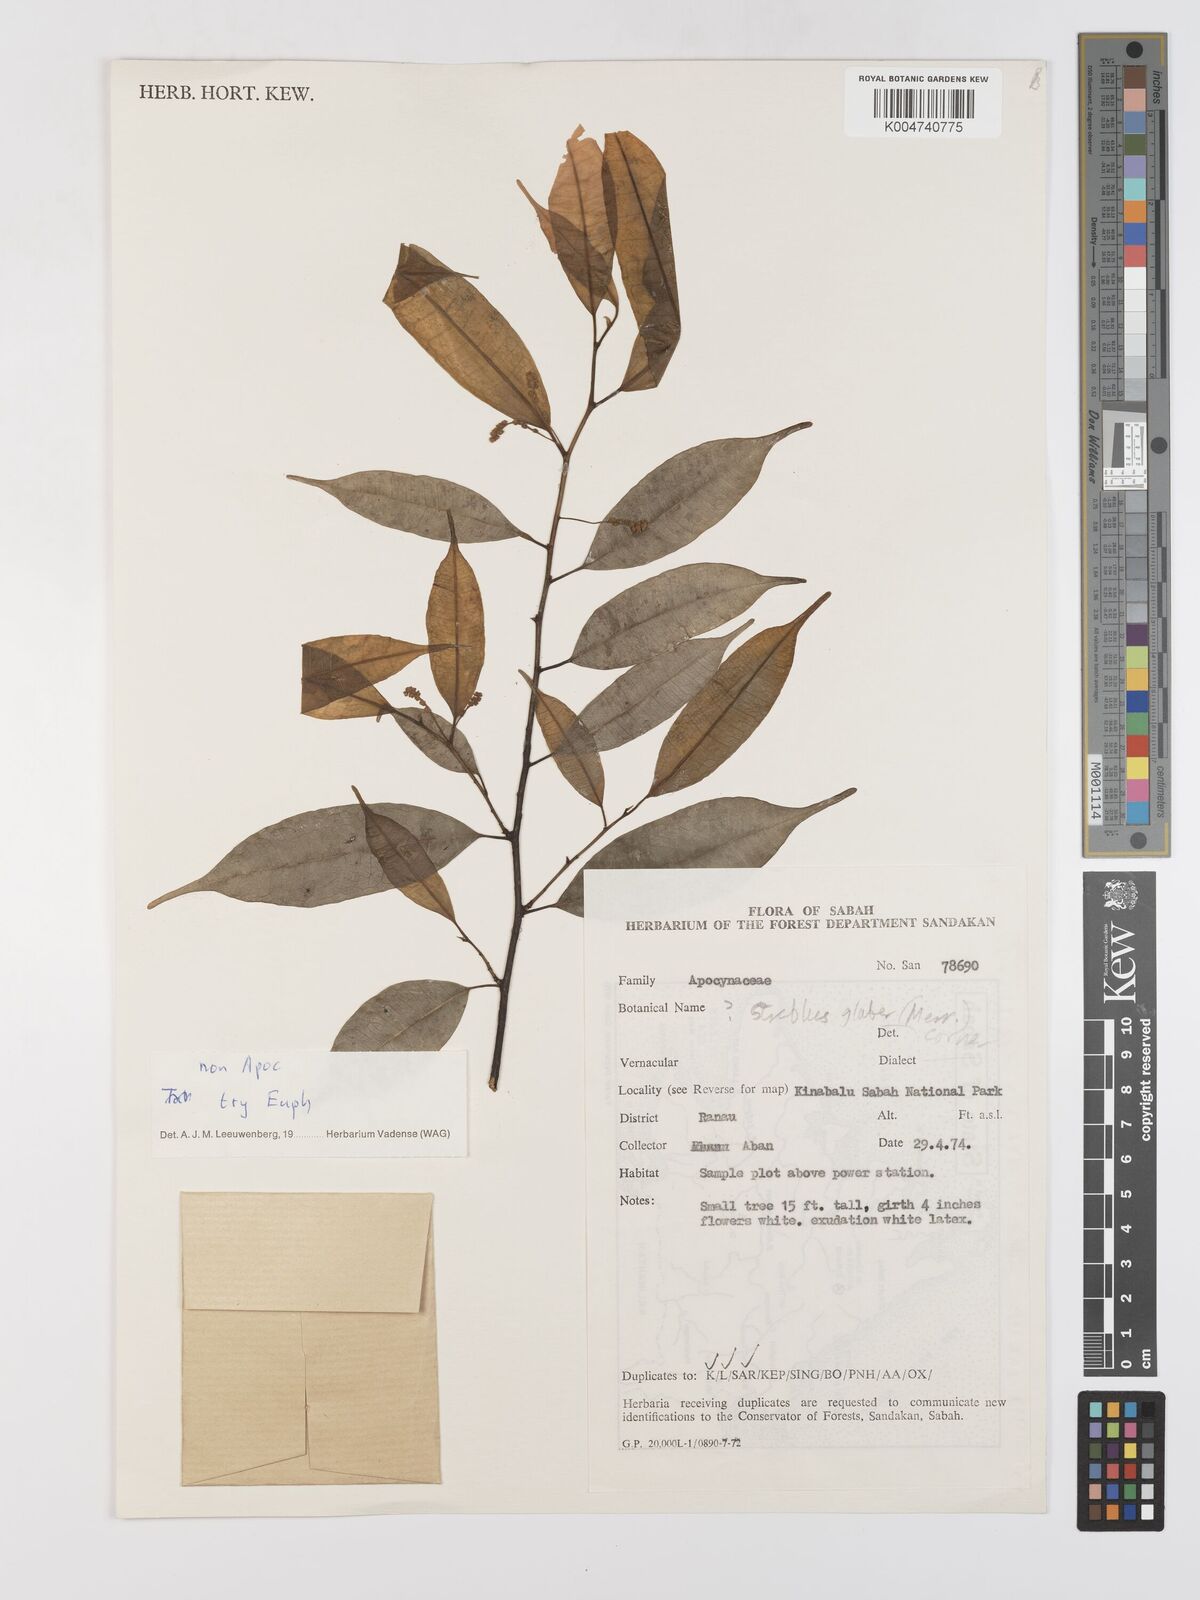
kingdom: Plantae
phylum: Tracheophyta
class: Magnoliopsida
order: Rosales
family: Moraceae
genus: Paratrophis
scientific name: Paratrophis glabra
